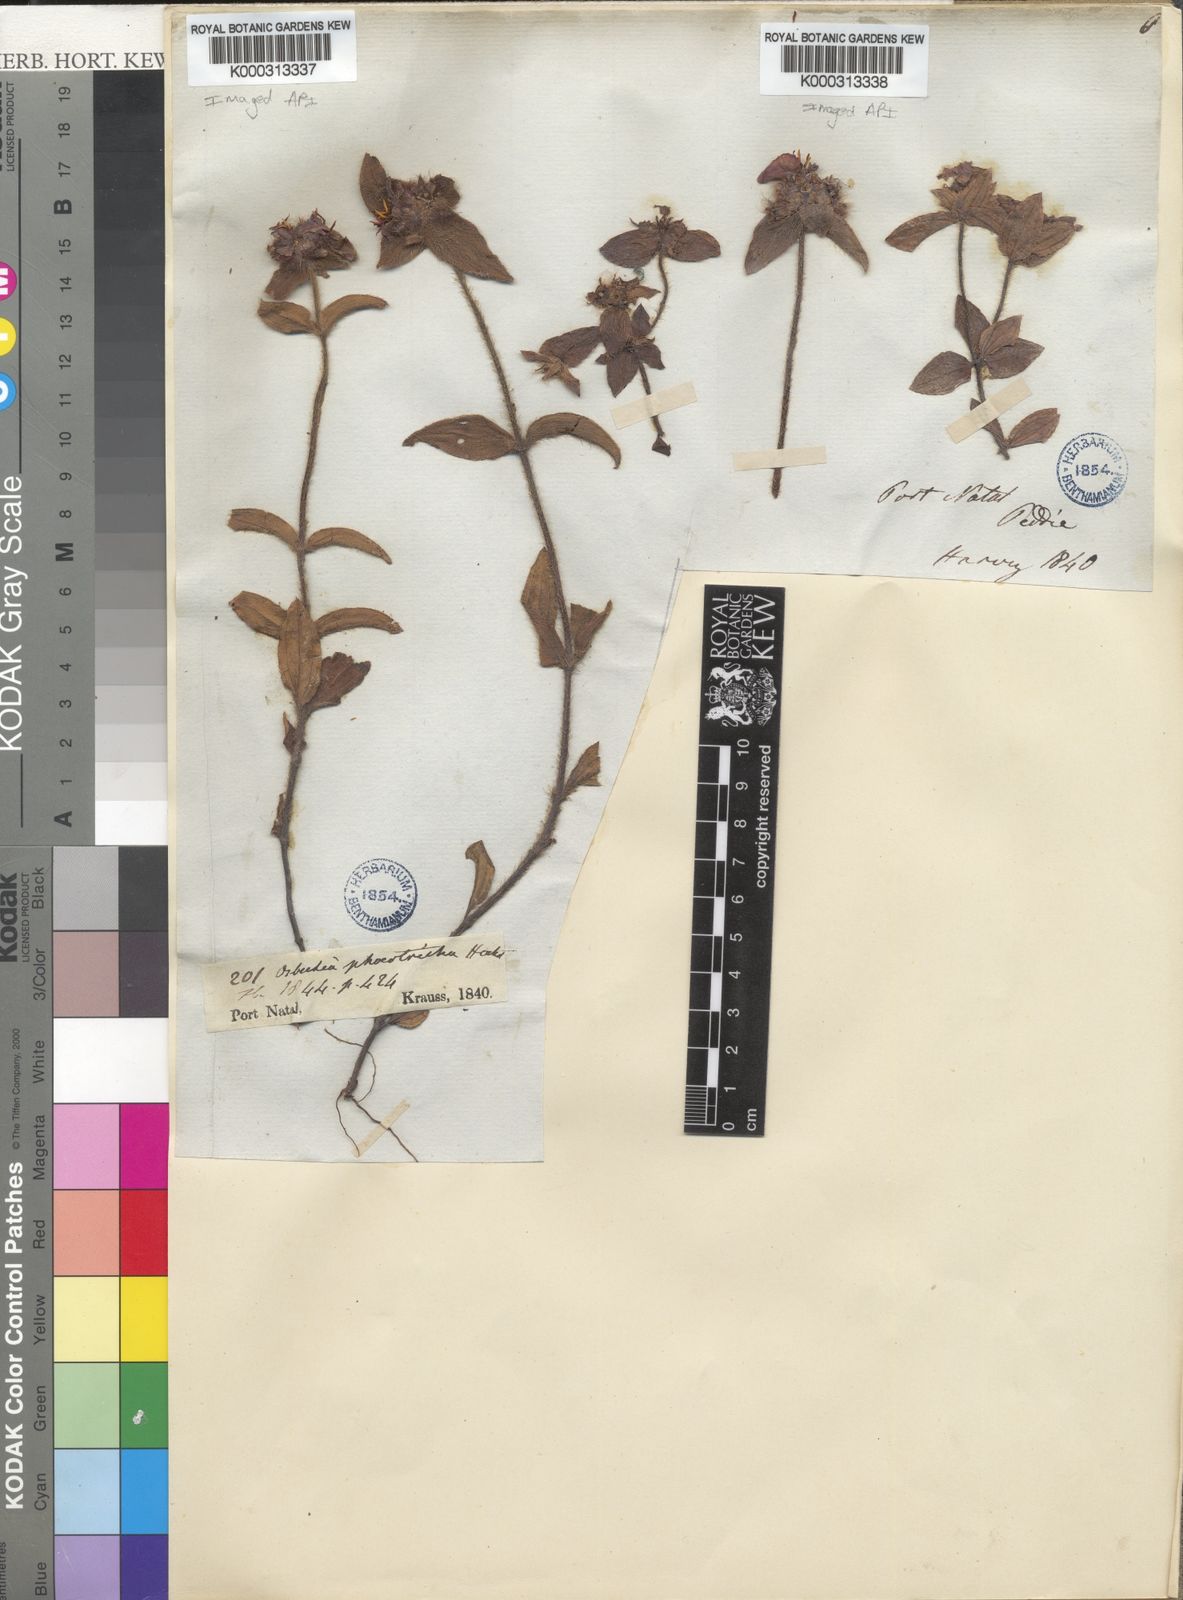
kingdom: Plantae
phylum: Tracheophyta
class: Magnoliopsida
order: Myrtales
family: Melastomataceae
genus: Antherotoma
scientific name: Antherotoma
